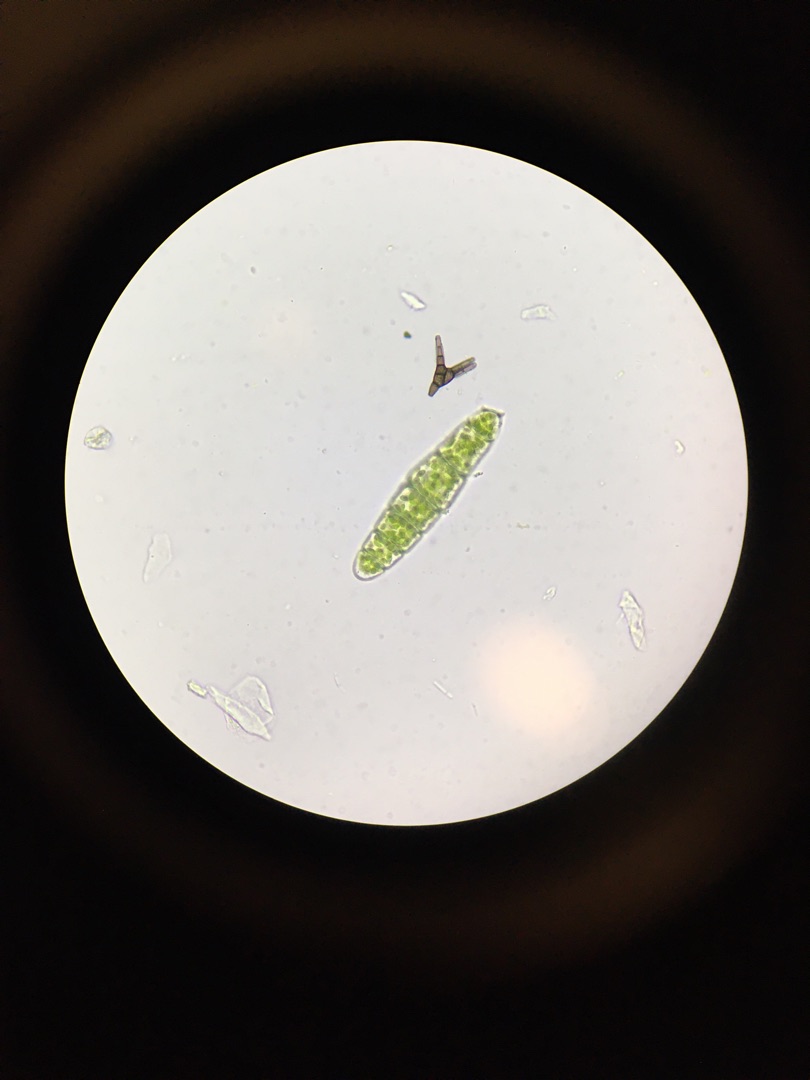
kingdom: Plantae
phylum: Bryophyta
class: Bryopsida
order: Orthotrichales
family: Orthotrichaceae
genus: Zygodon
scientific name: Zygodon conoideus
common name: Tand-køllemos
